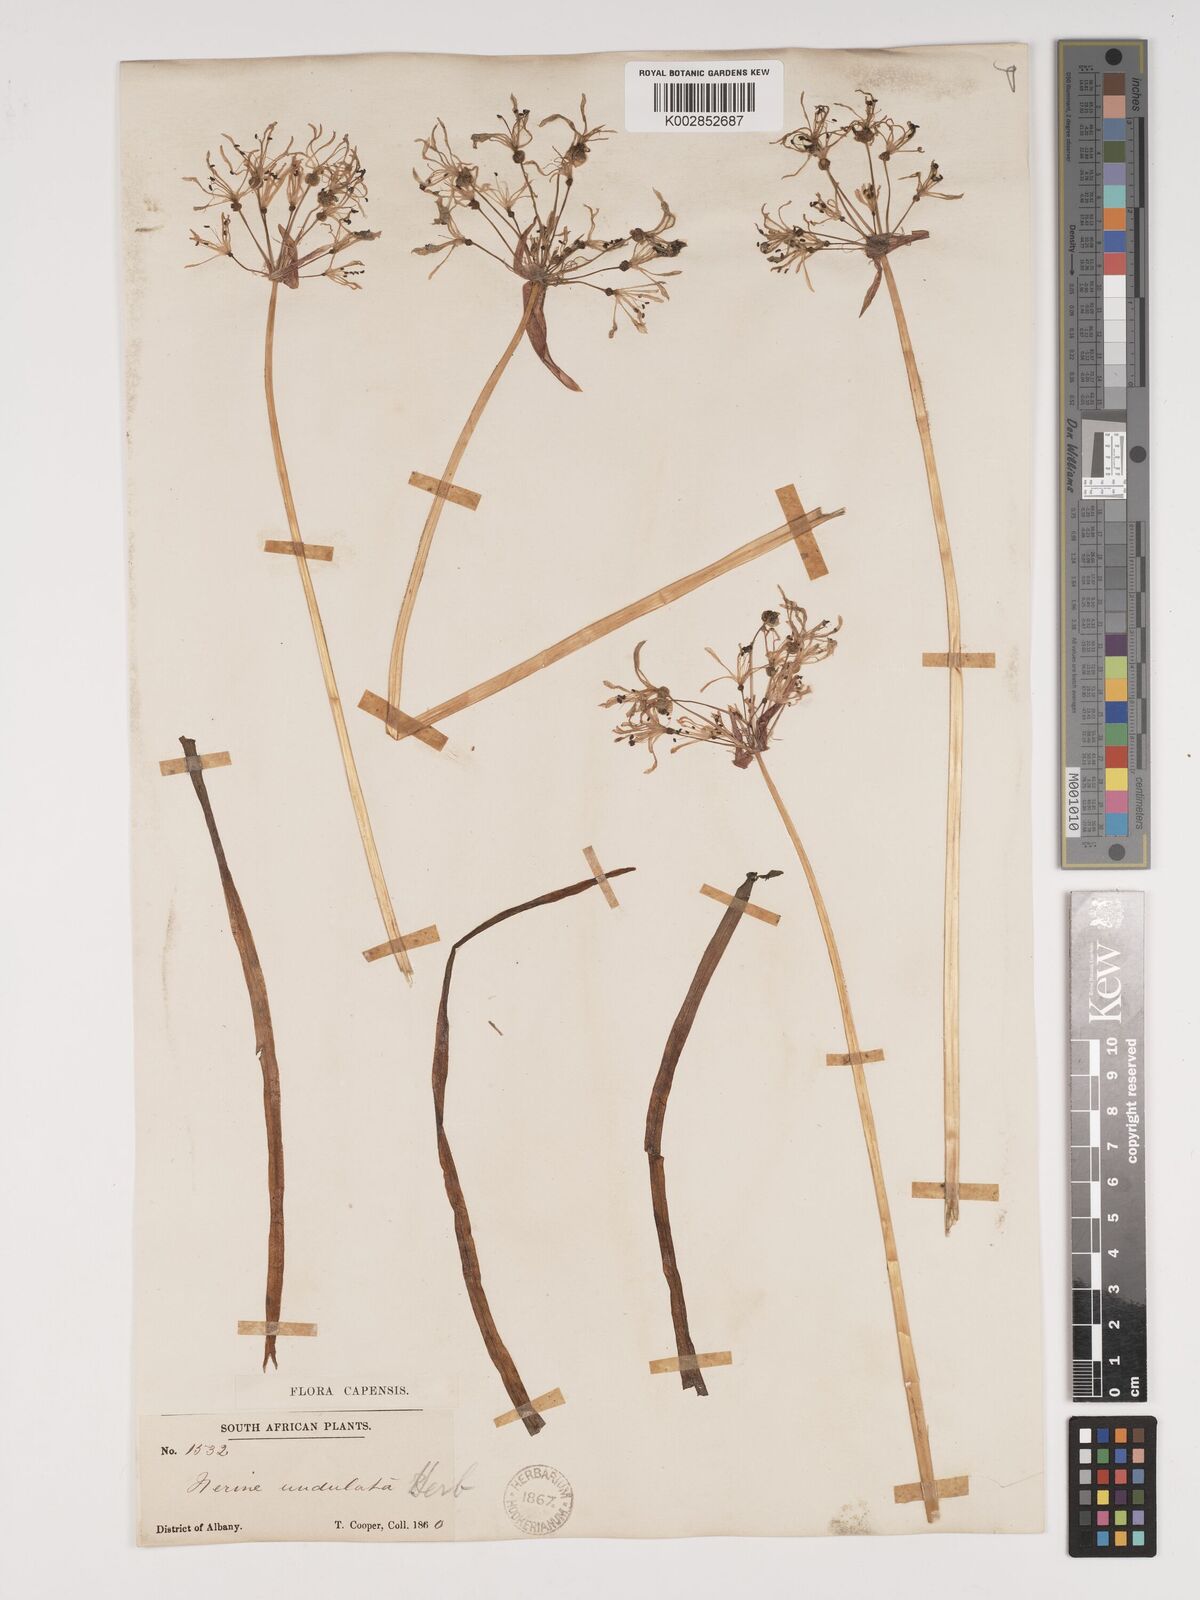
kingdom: Plantae
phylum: Tracheophyta
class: Liliopsida
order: Asparagales
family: Amaryllidaceae
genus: Nerine
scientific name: Nerine undulata
